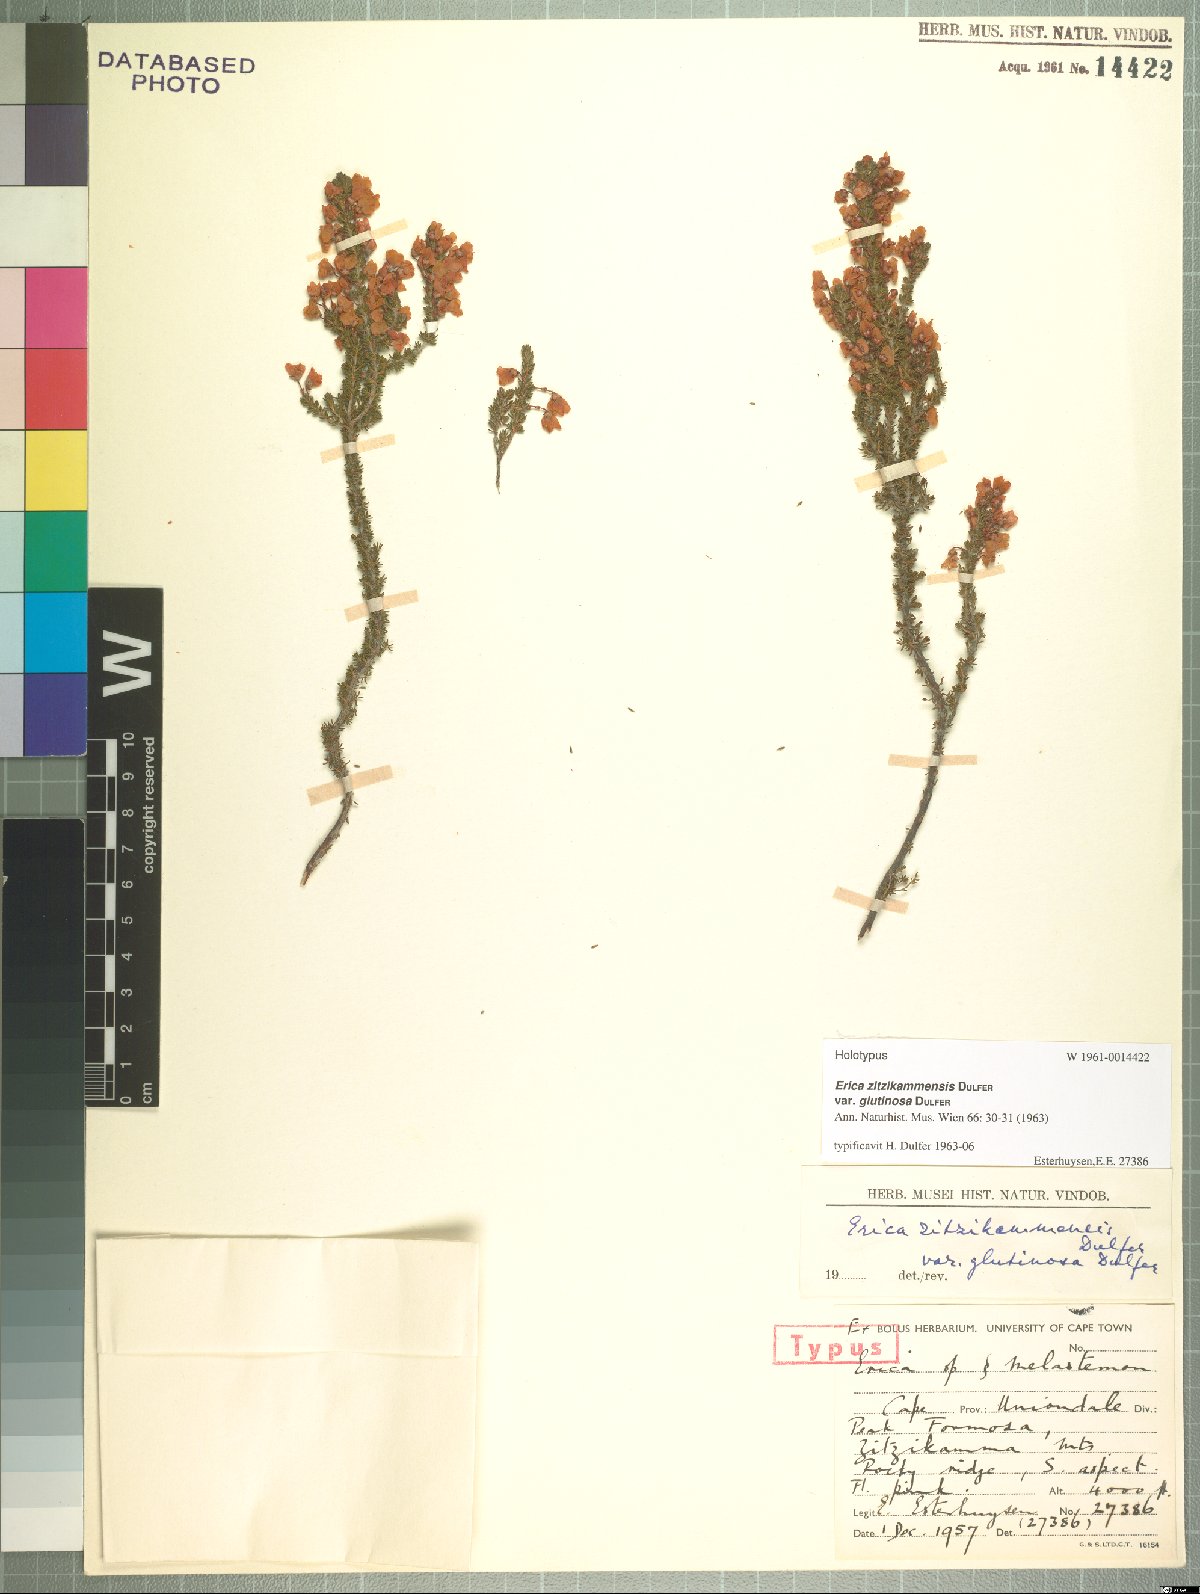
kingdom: Plantae
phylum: Tracheophyta
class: Magnoliopsida
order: Ericales
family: Ericaceae
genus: Erica
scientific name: Erica zitzikammensis
